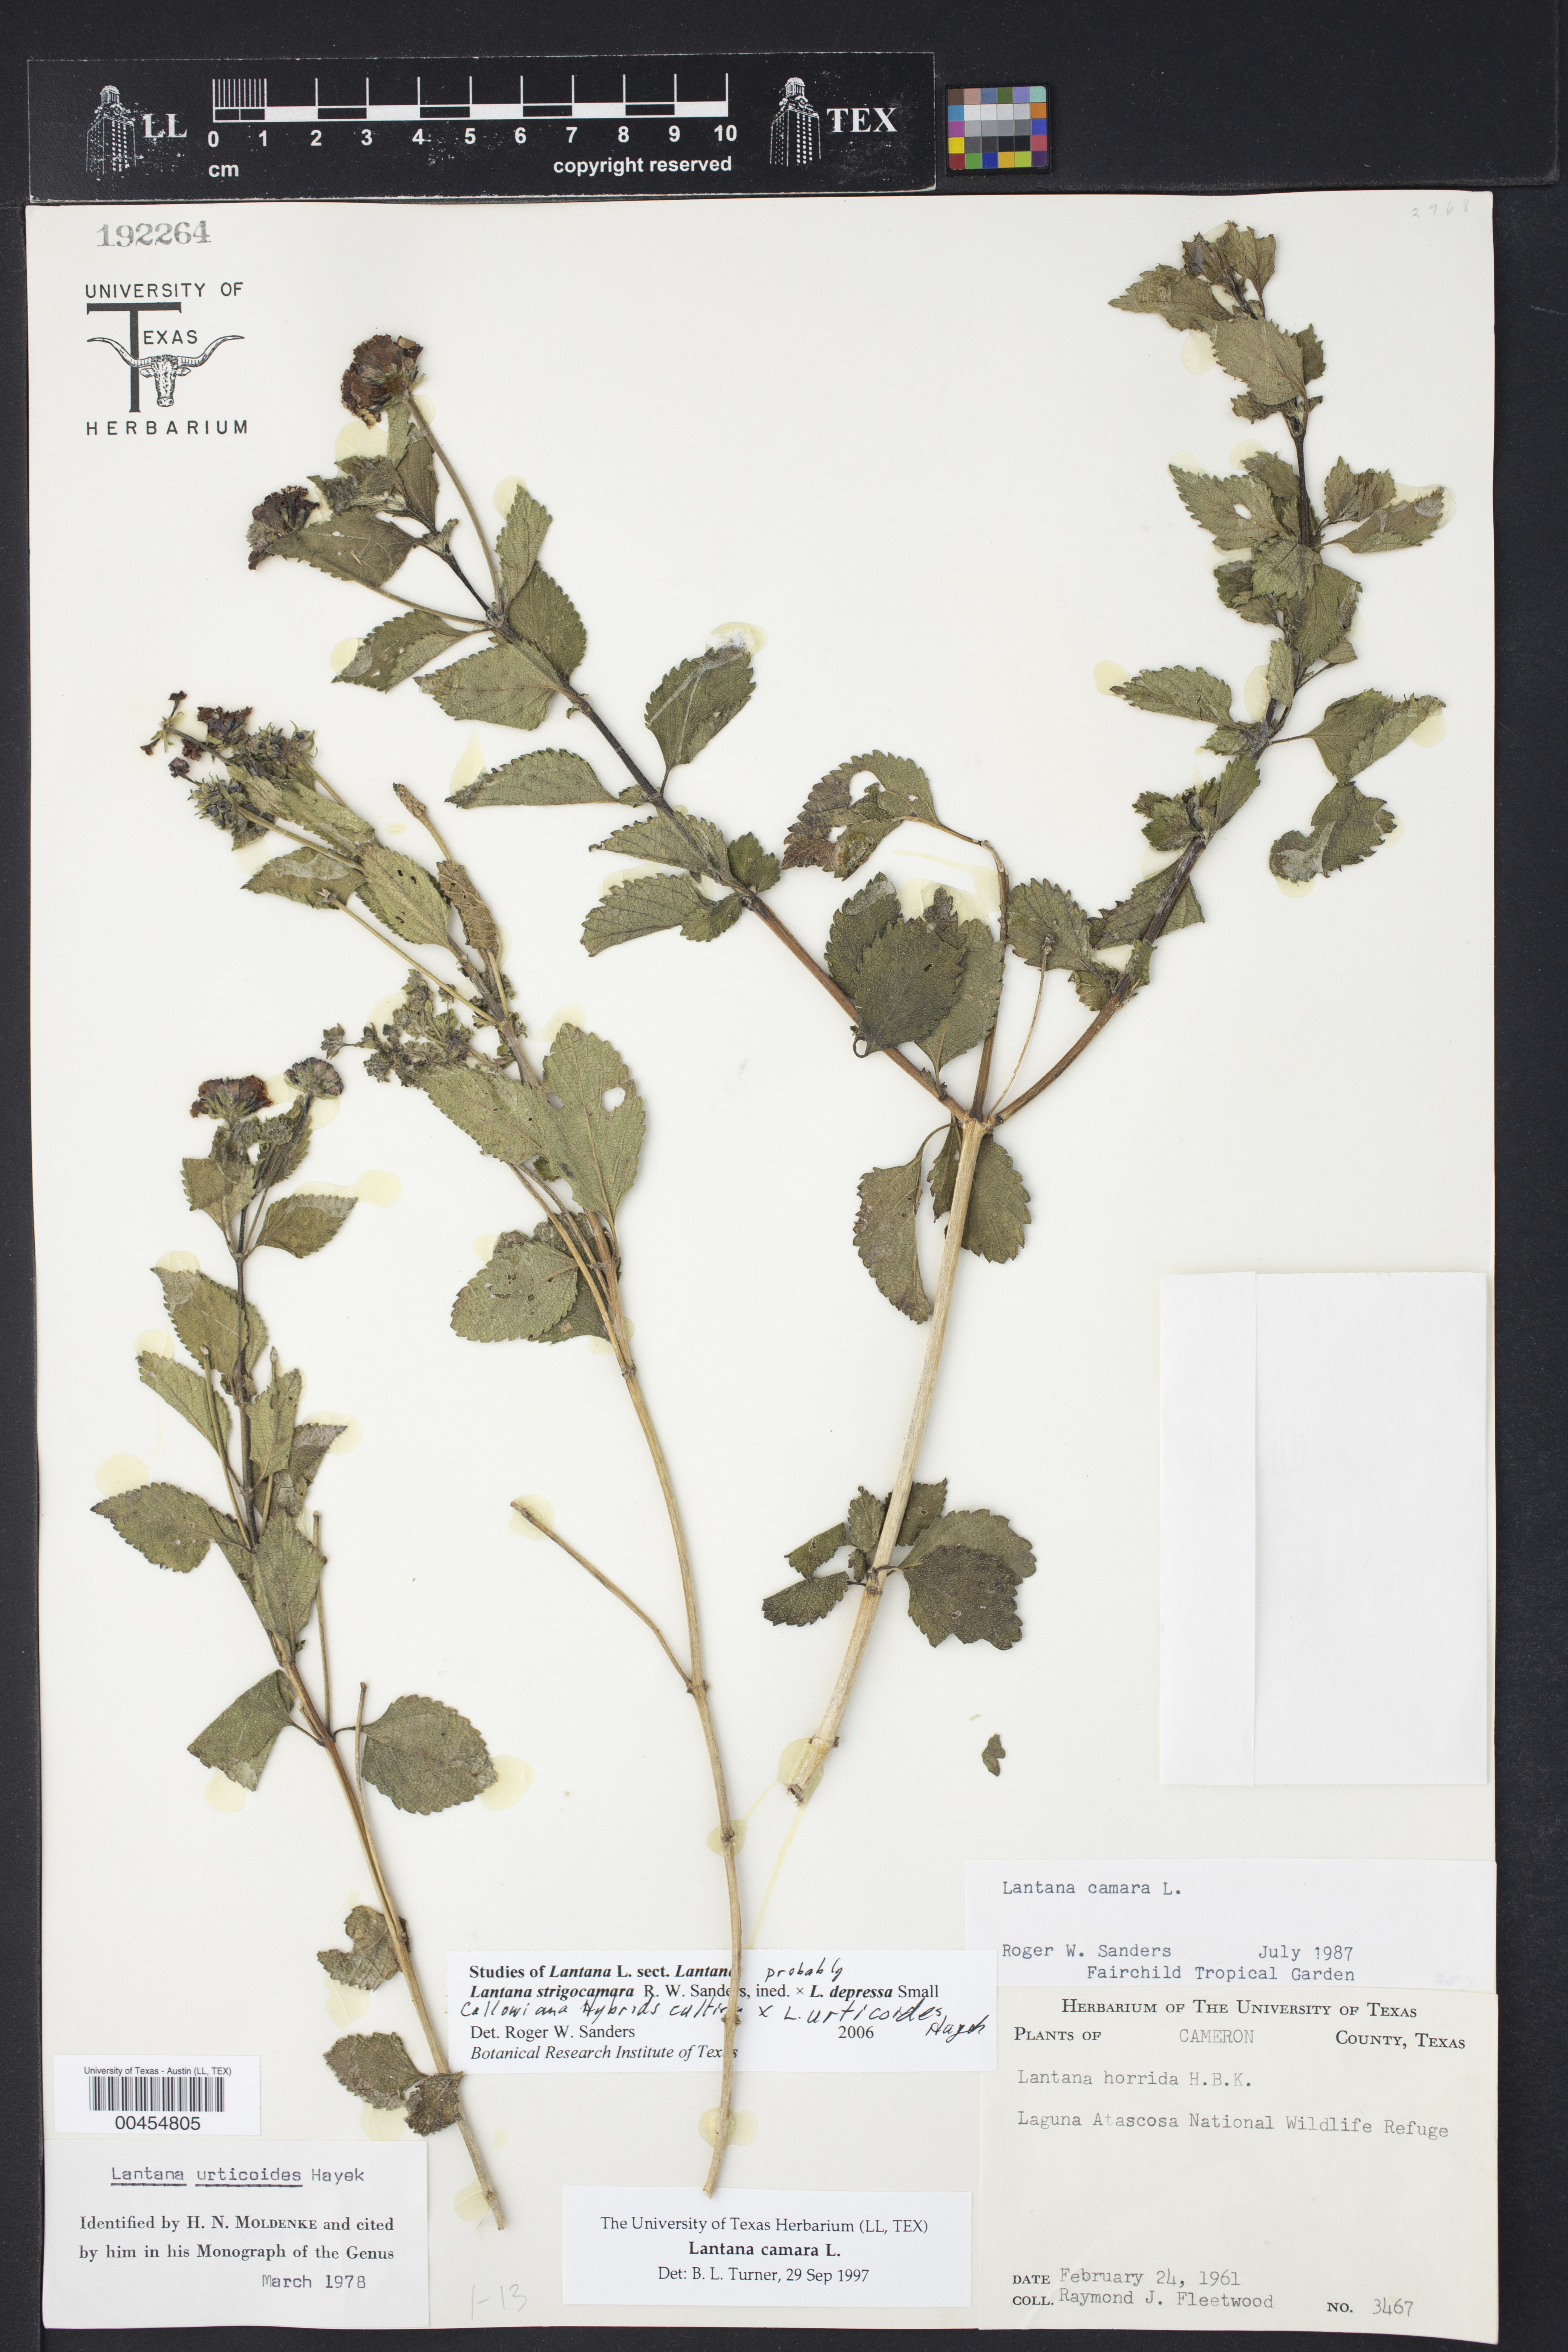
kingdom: Plantae
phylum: Tracheophyta
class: Magnoliopsida
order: Lamiales
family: Verbenaceae
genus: Lantana
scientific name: Lantana strigocamara
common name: Lantana
